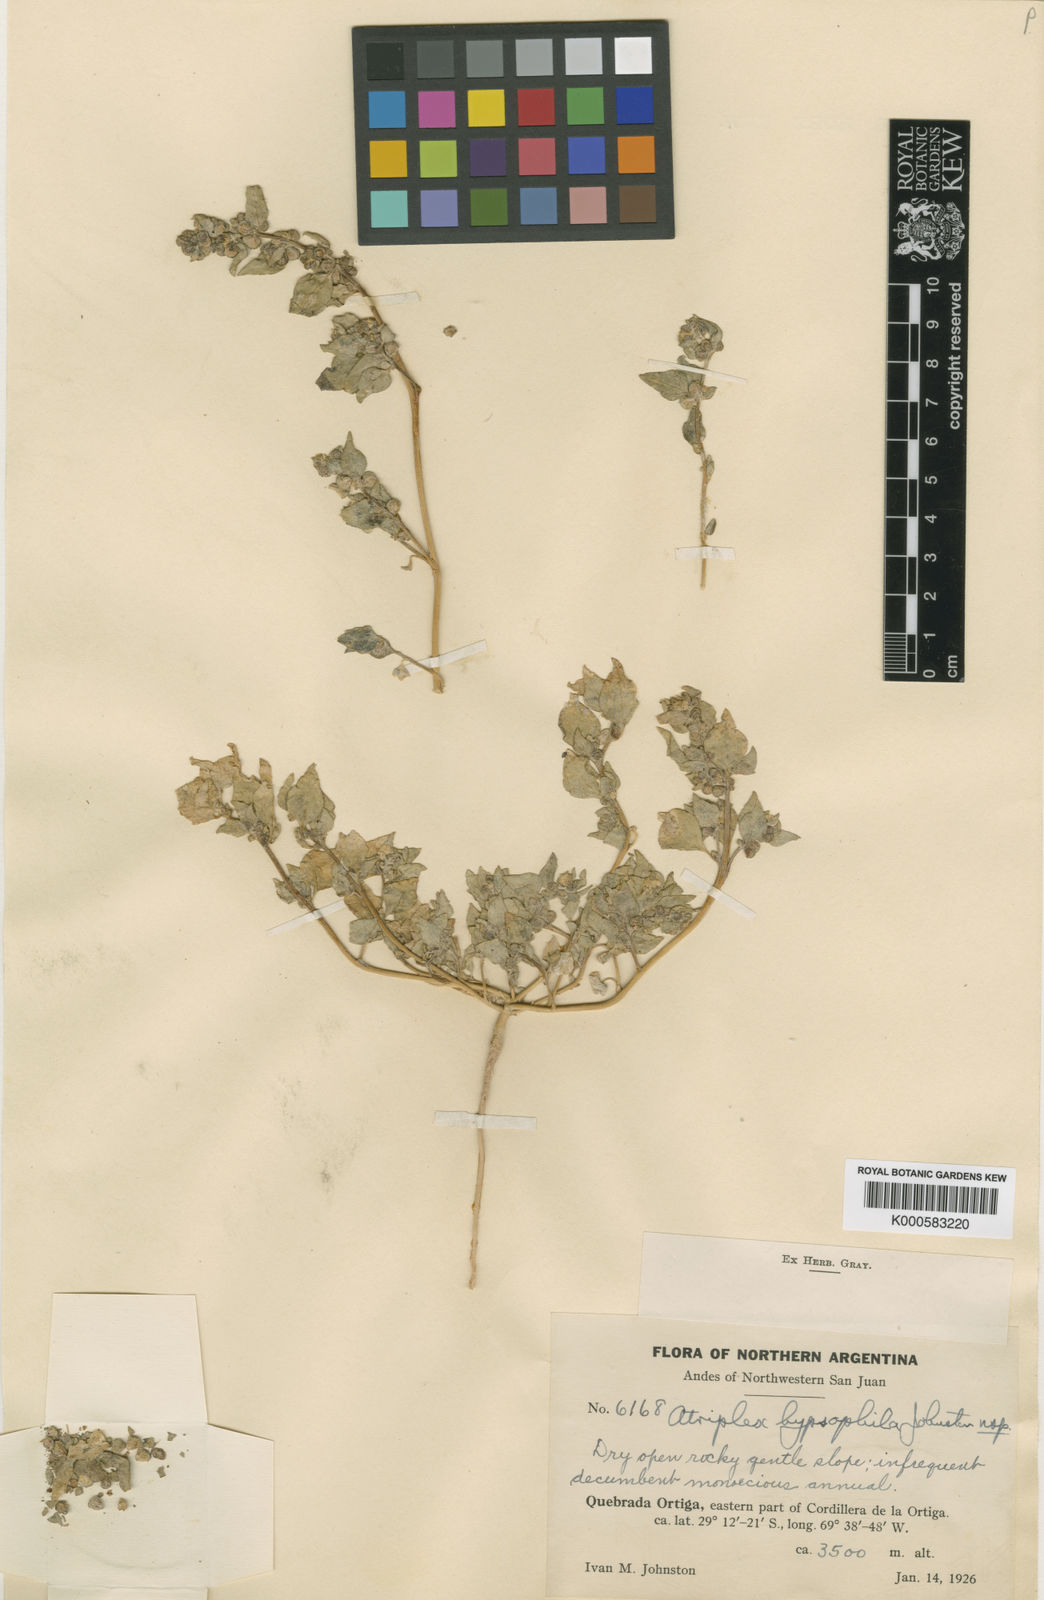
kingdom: Plantae
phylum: Tracheophyta
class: Magnoliopsida
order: Caryophyllales
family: Amaranthaceae
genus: Atriplex
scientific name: Atriplex oreophila
